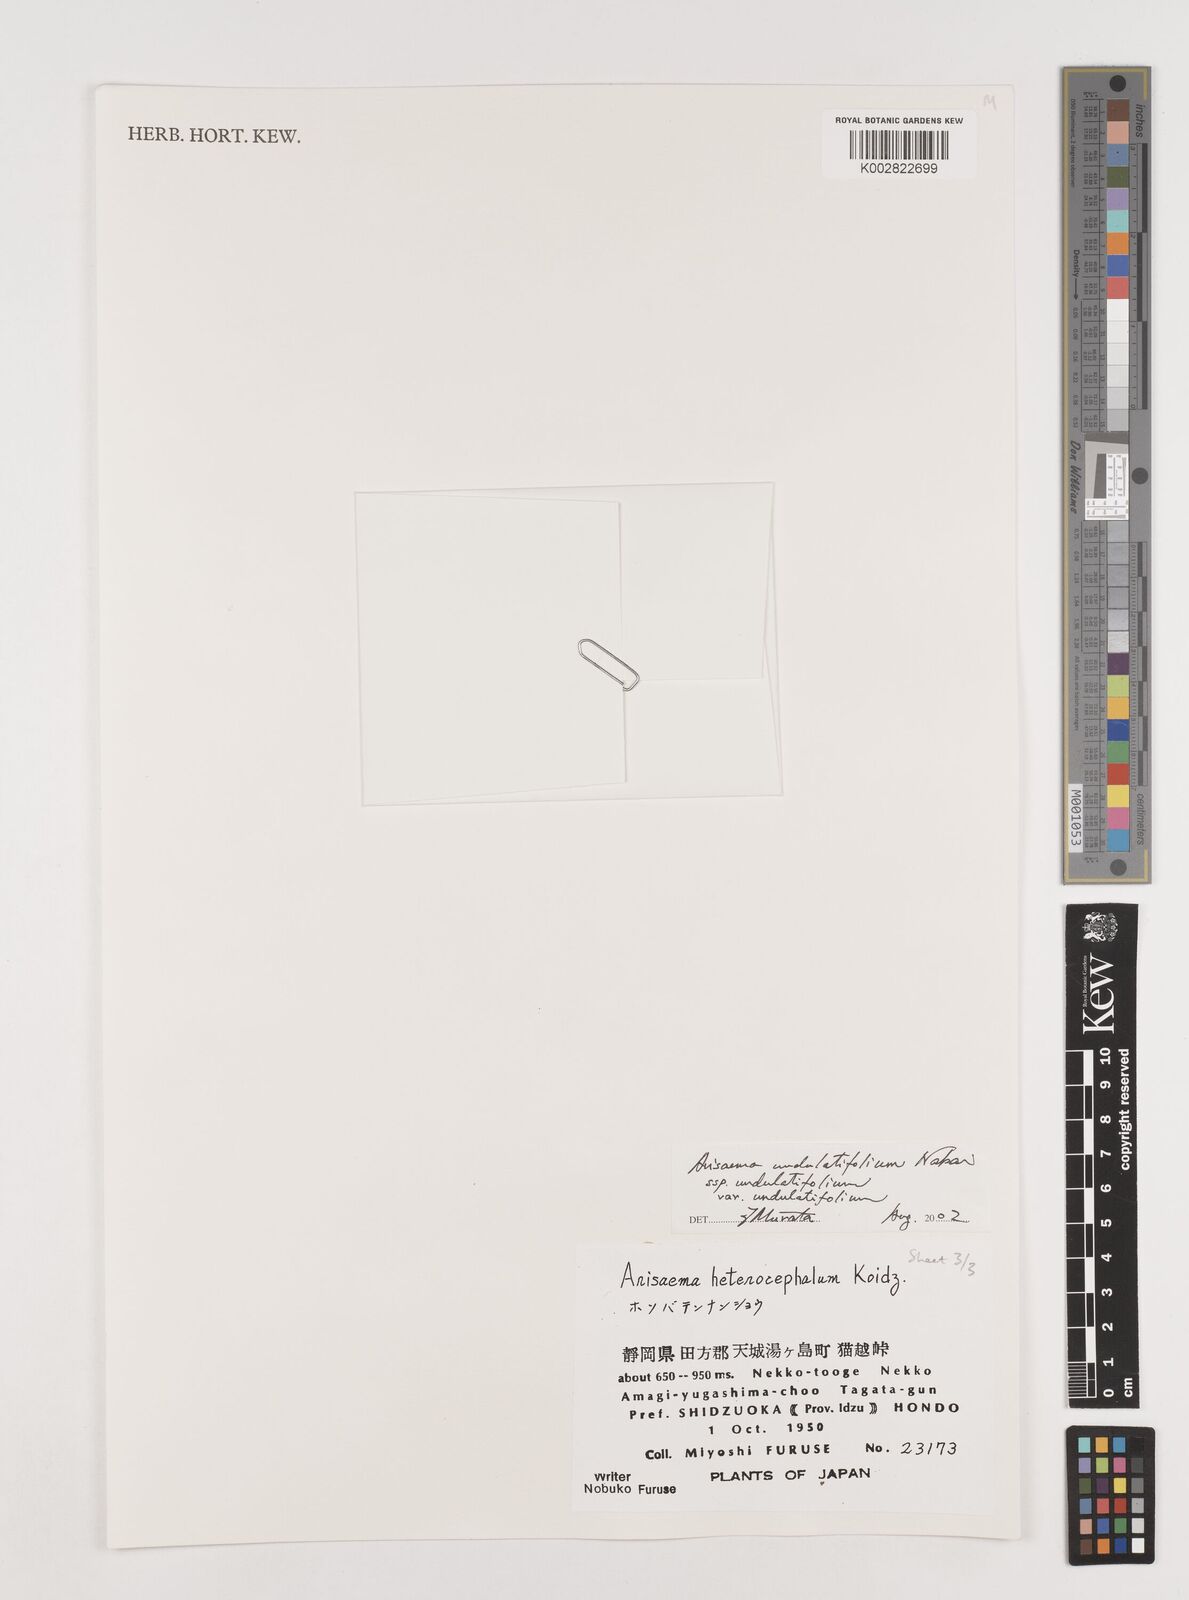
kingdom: Plantae
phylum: Tracheophyta
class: Liliopsida
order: Alismatales
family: Araceae
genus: Arisaema
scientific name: Arisaema undulatifolium
